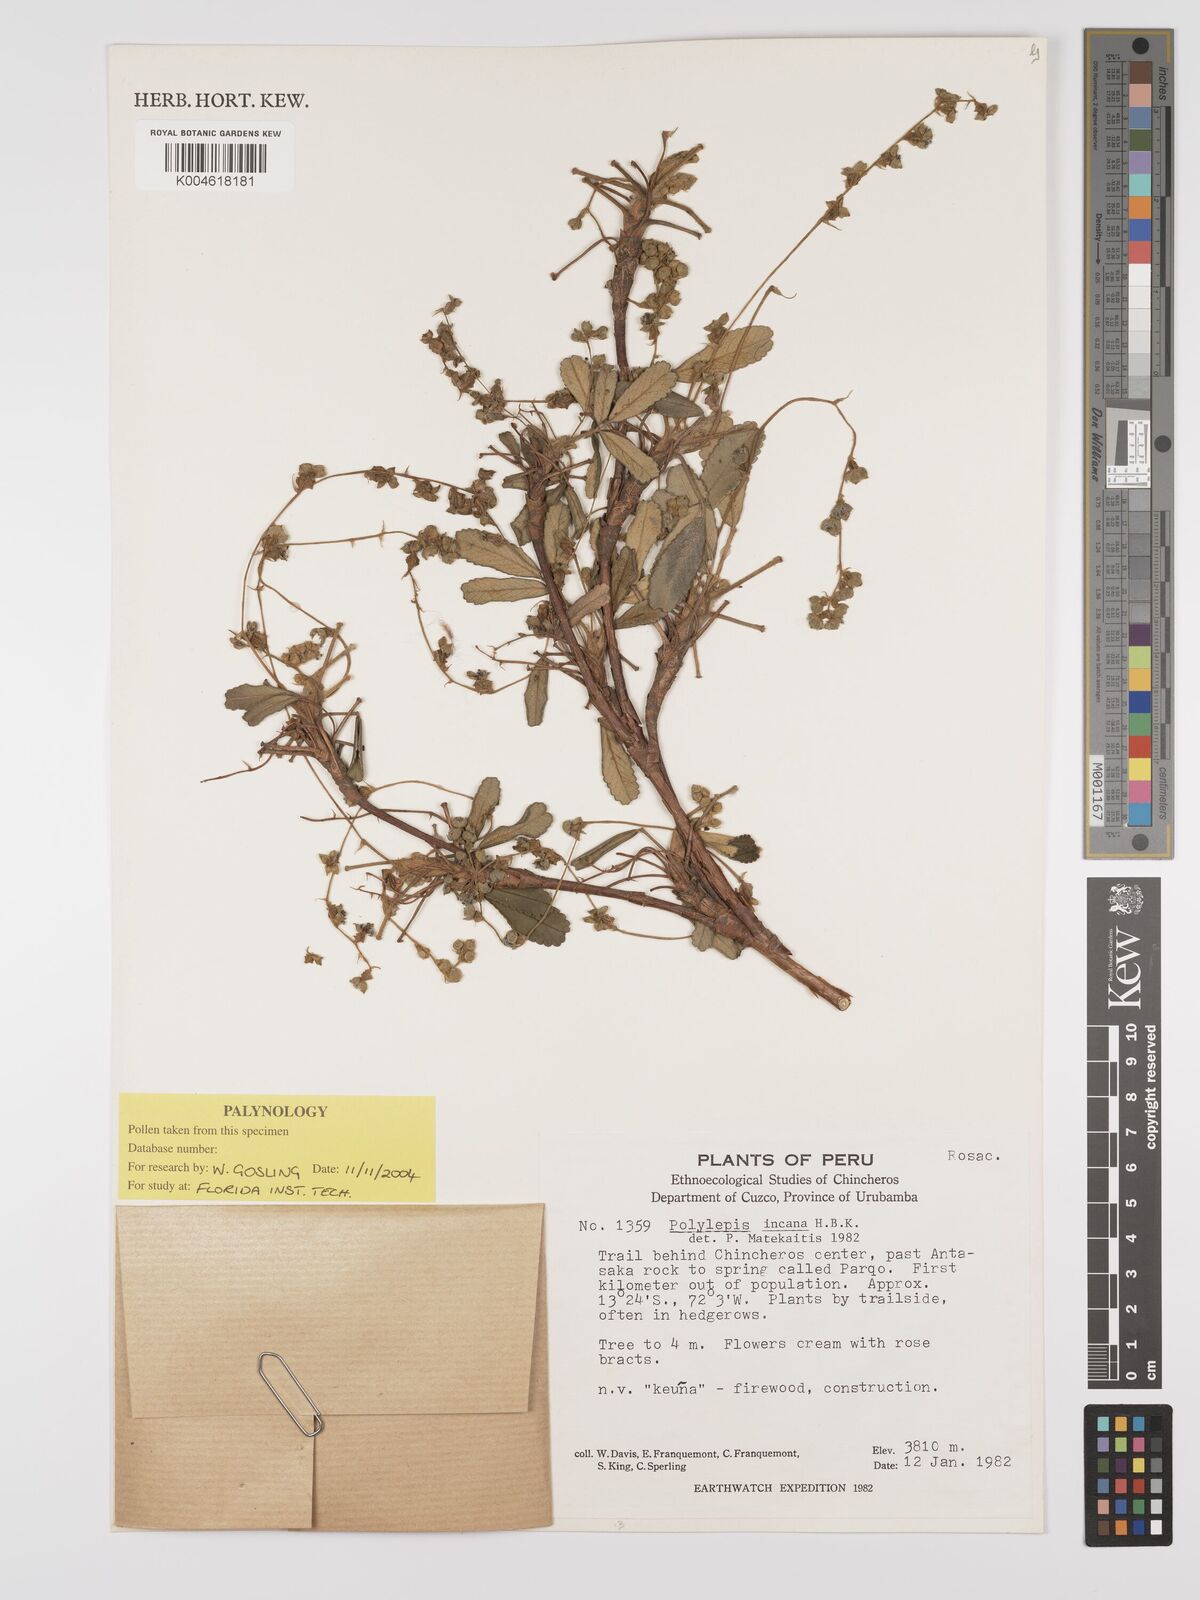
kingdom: Plantae
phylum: Tracheophyta
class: Magnoliopsida
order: Rosales
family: Rosaceae
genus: Polylepis
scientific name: Polylepis incana
